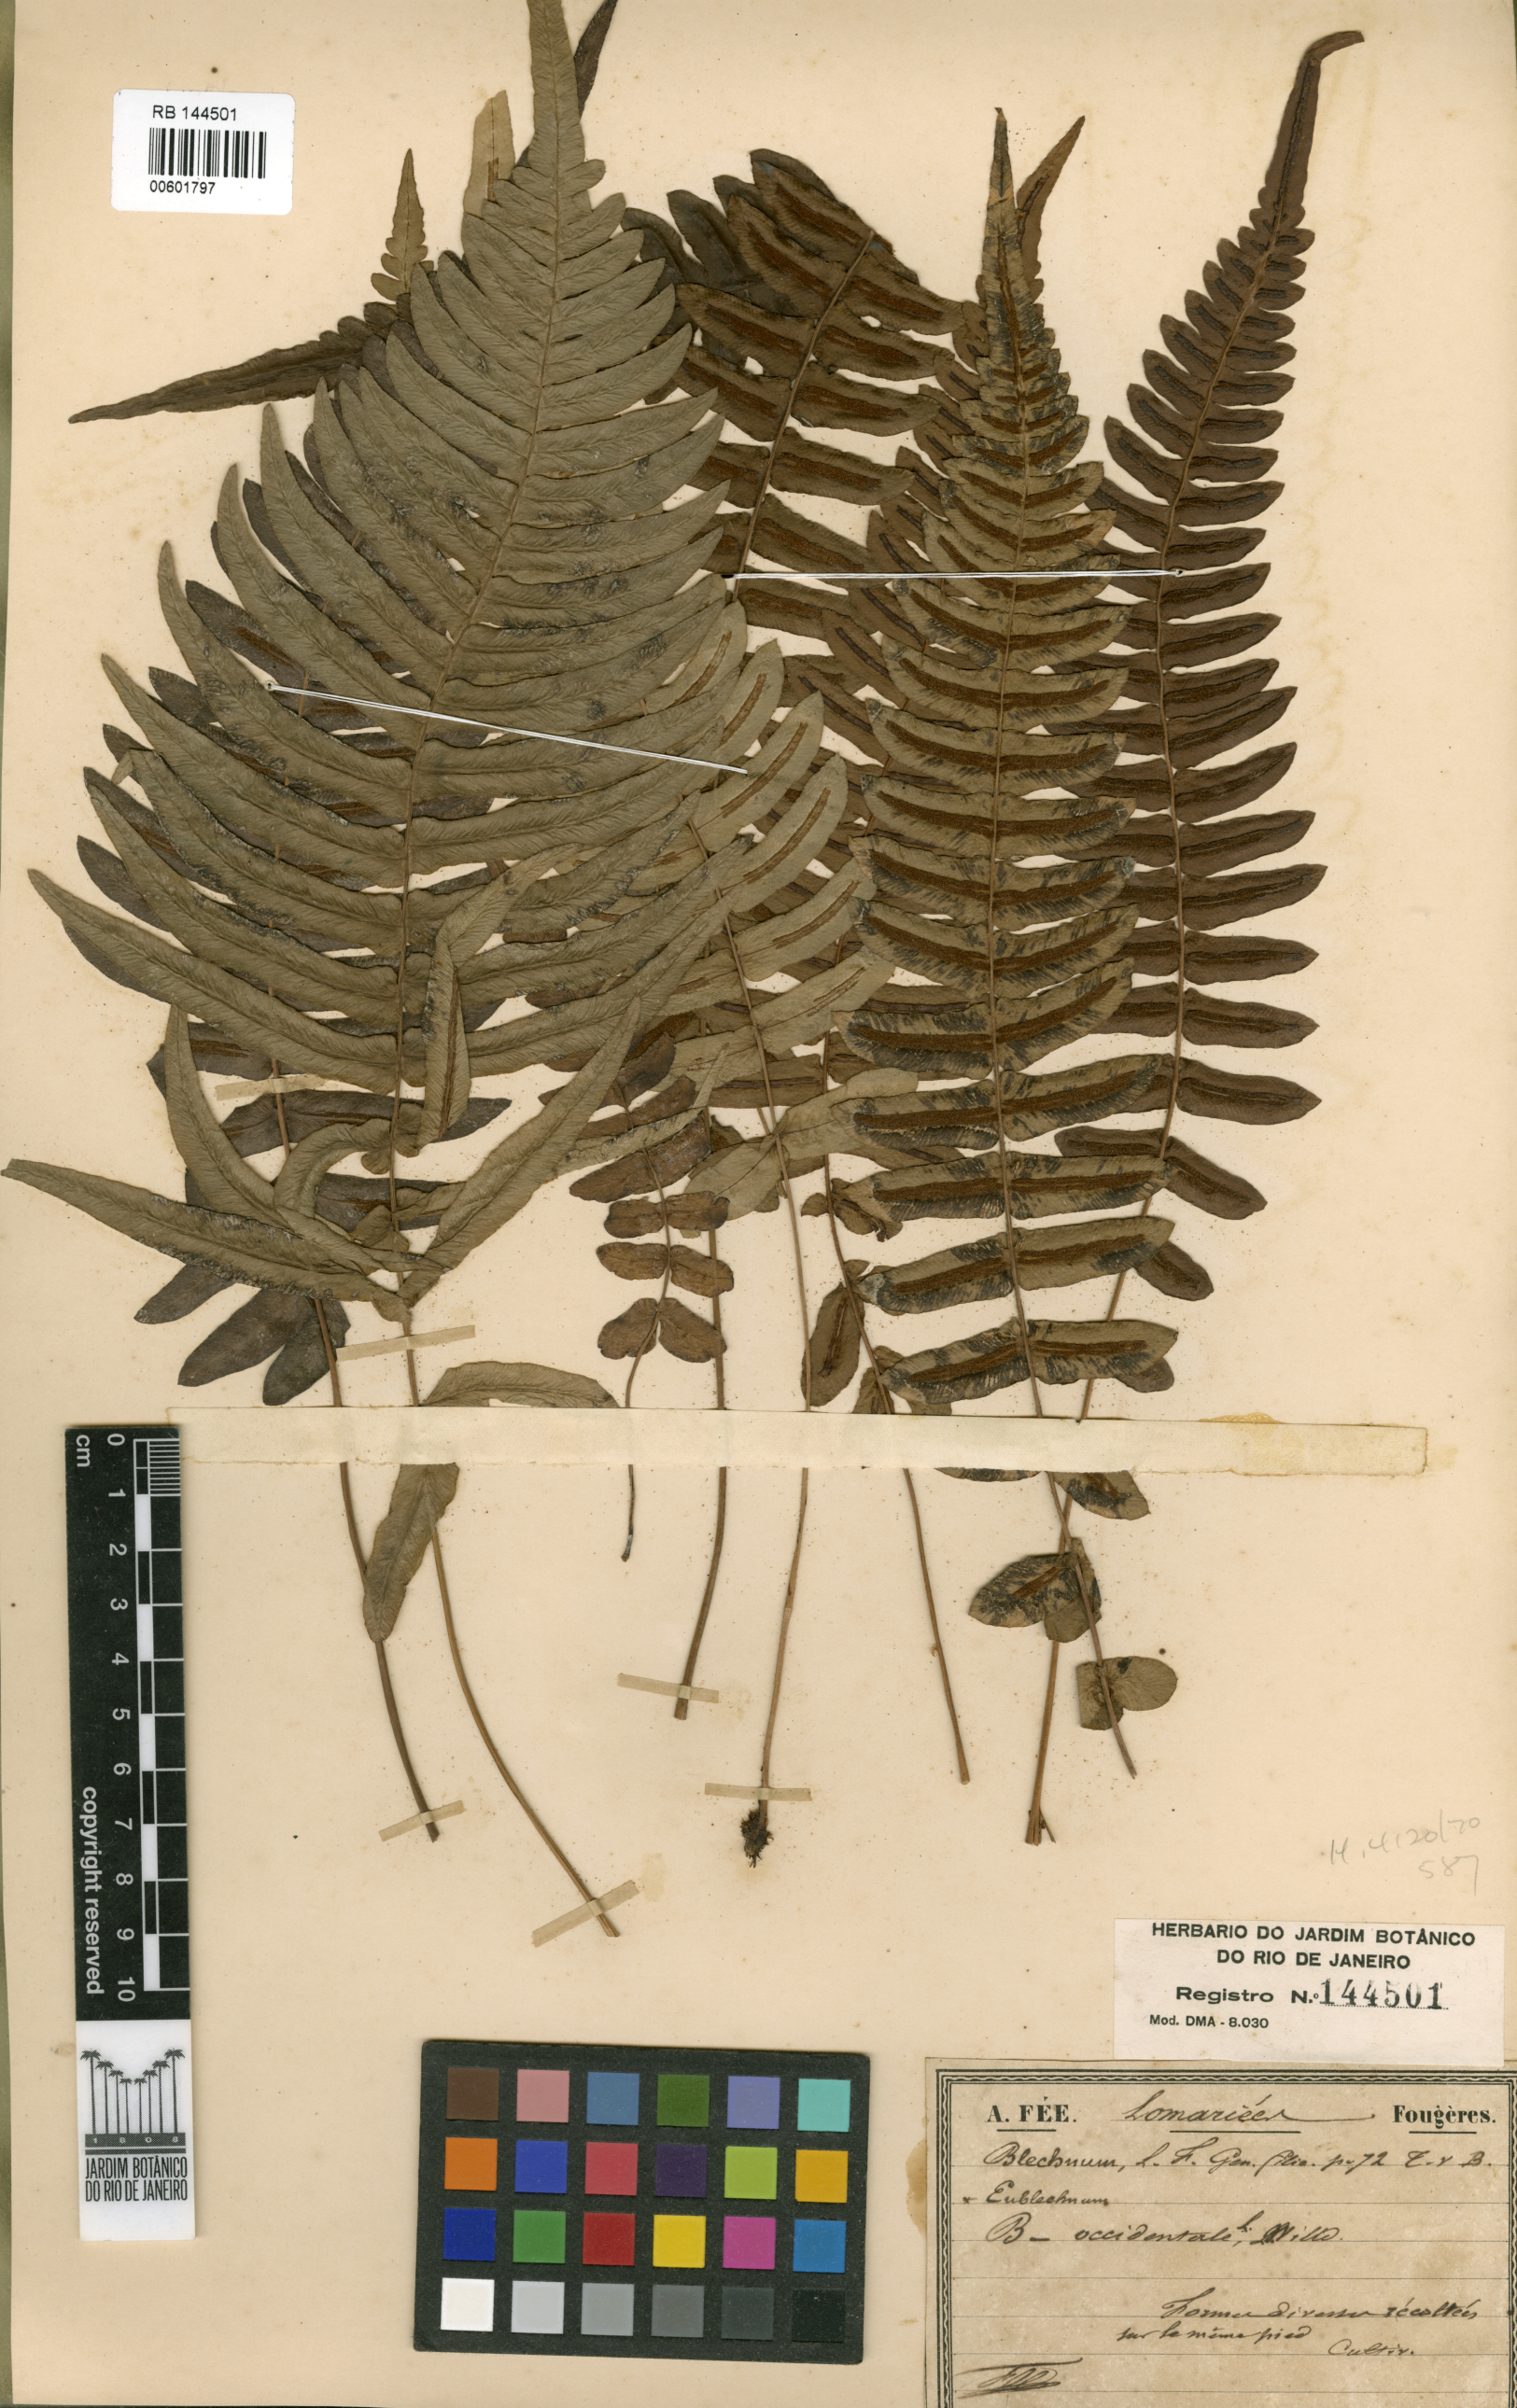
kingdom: Plantae
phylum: Tracheophyta
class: Polypodiopsida
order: Polypodiales
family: Blechnaceae
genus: Blechnum
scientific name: Blechnum occidentale
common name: Hammock fern
